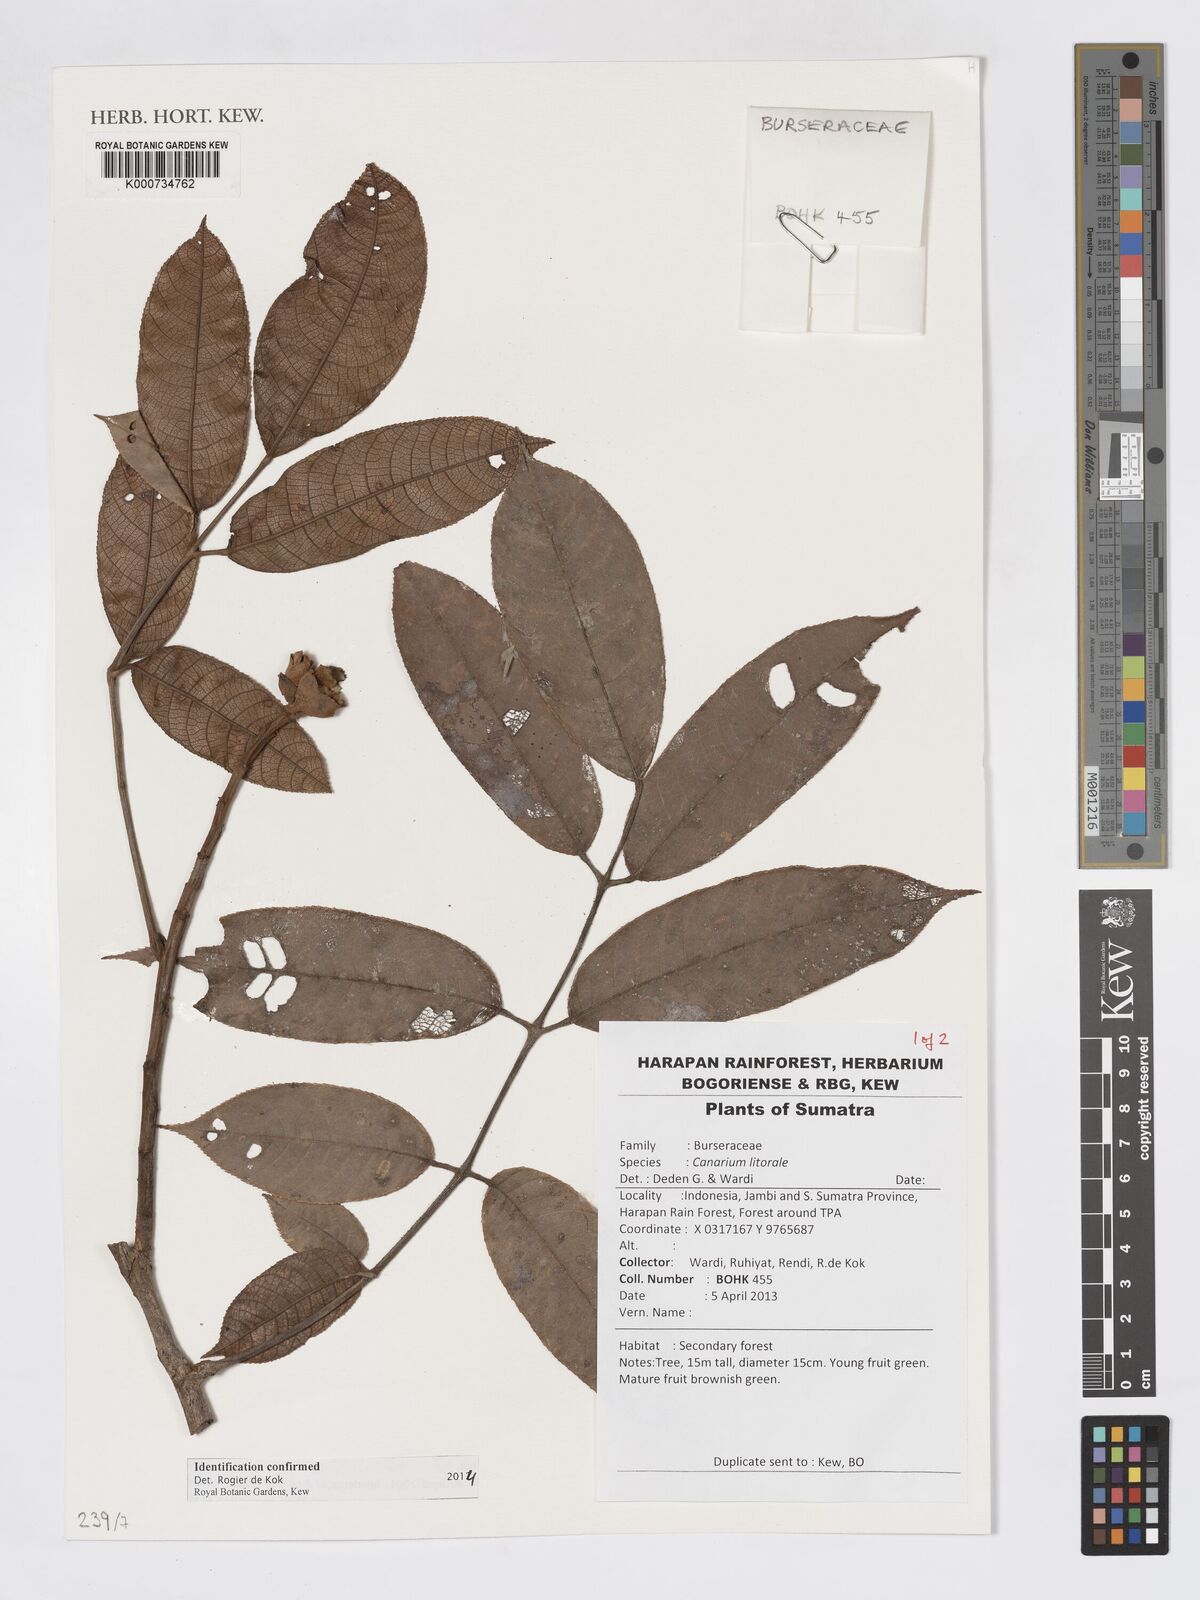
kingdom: Plantae
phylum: Tracheophyta
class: Magnoliopsida
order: Sapindales
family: Burseraceae
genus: Canarium
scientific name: Canarium littorale
